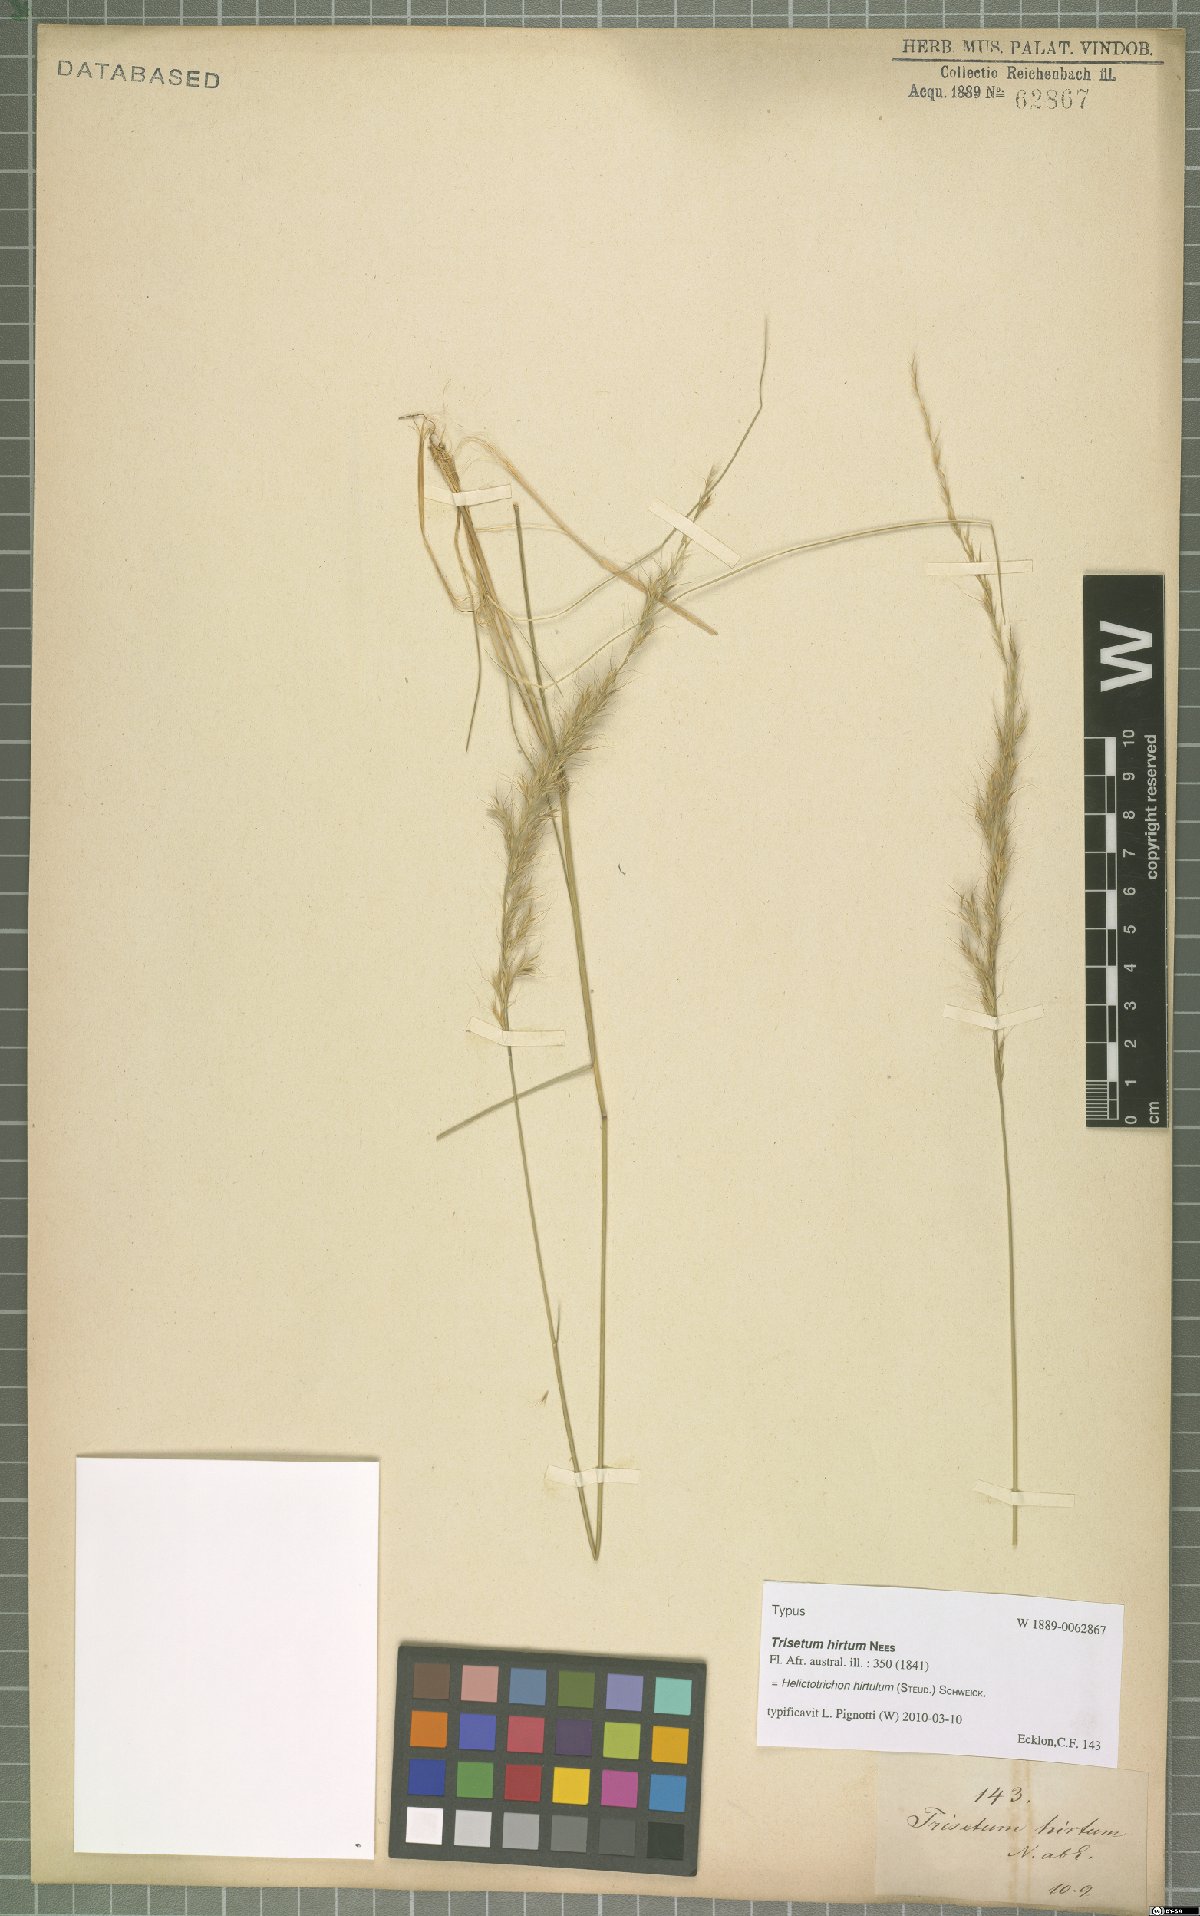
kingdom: Plantae
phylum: Tracheophyta
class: Liliopsida
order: Poales
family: Poaceae
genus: Trisetopsis
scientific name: Trisetopsis hirtula
